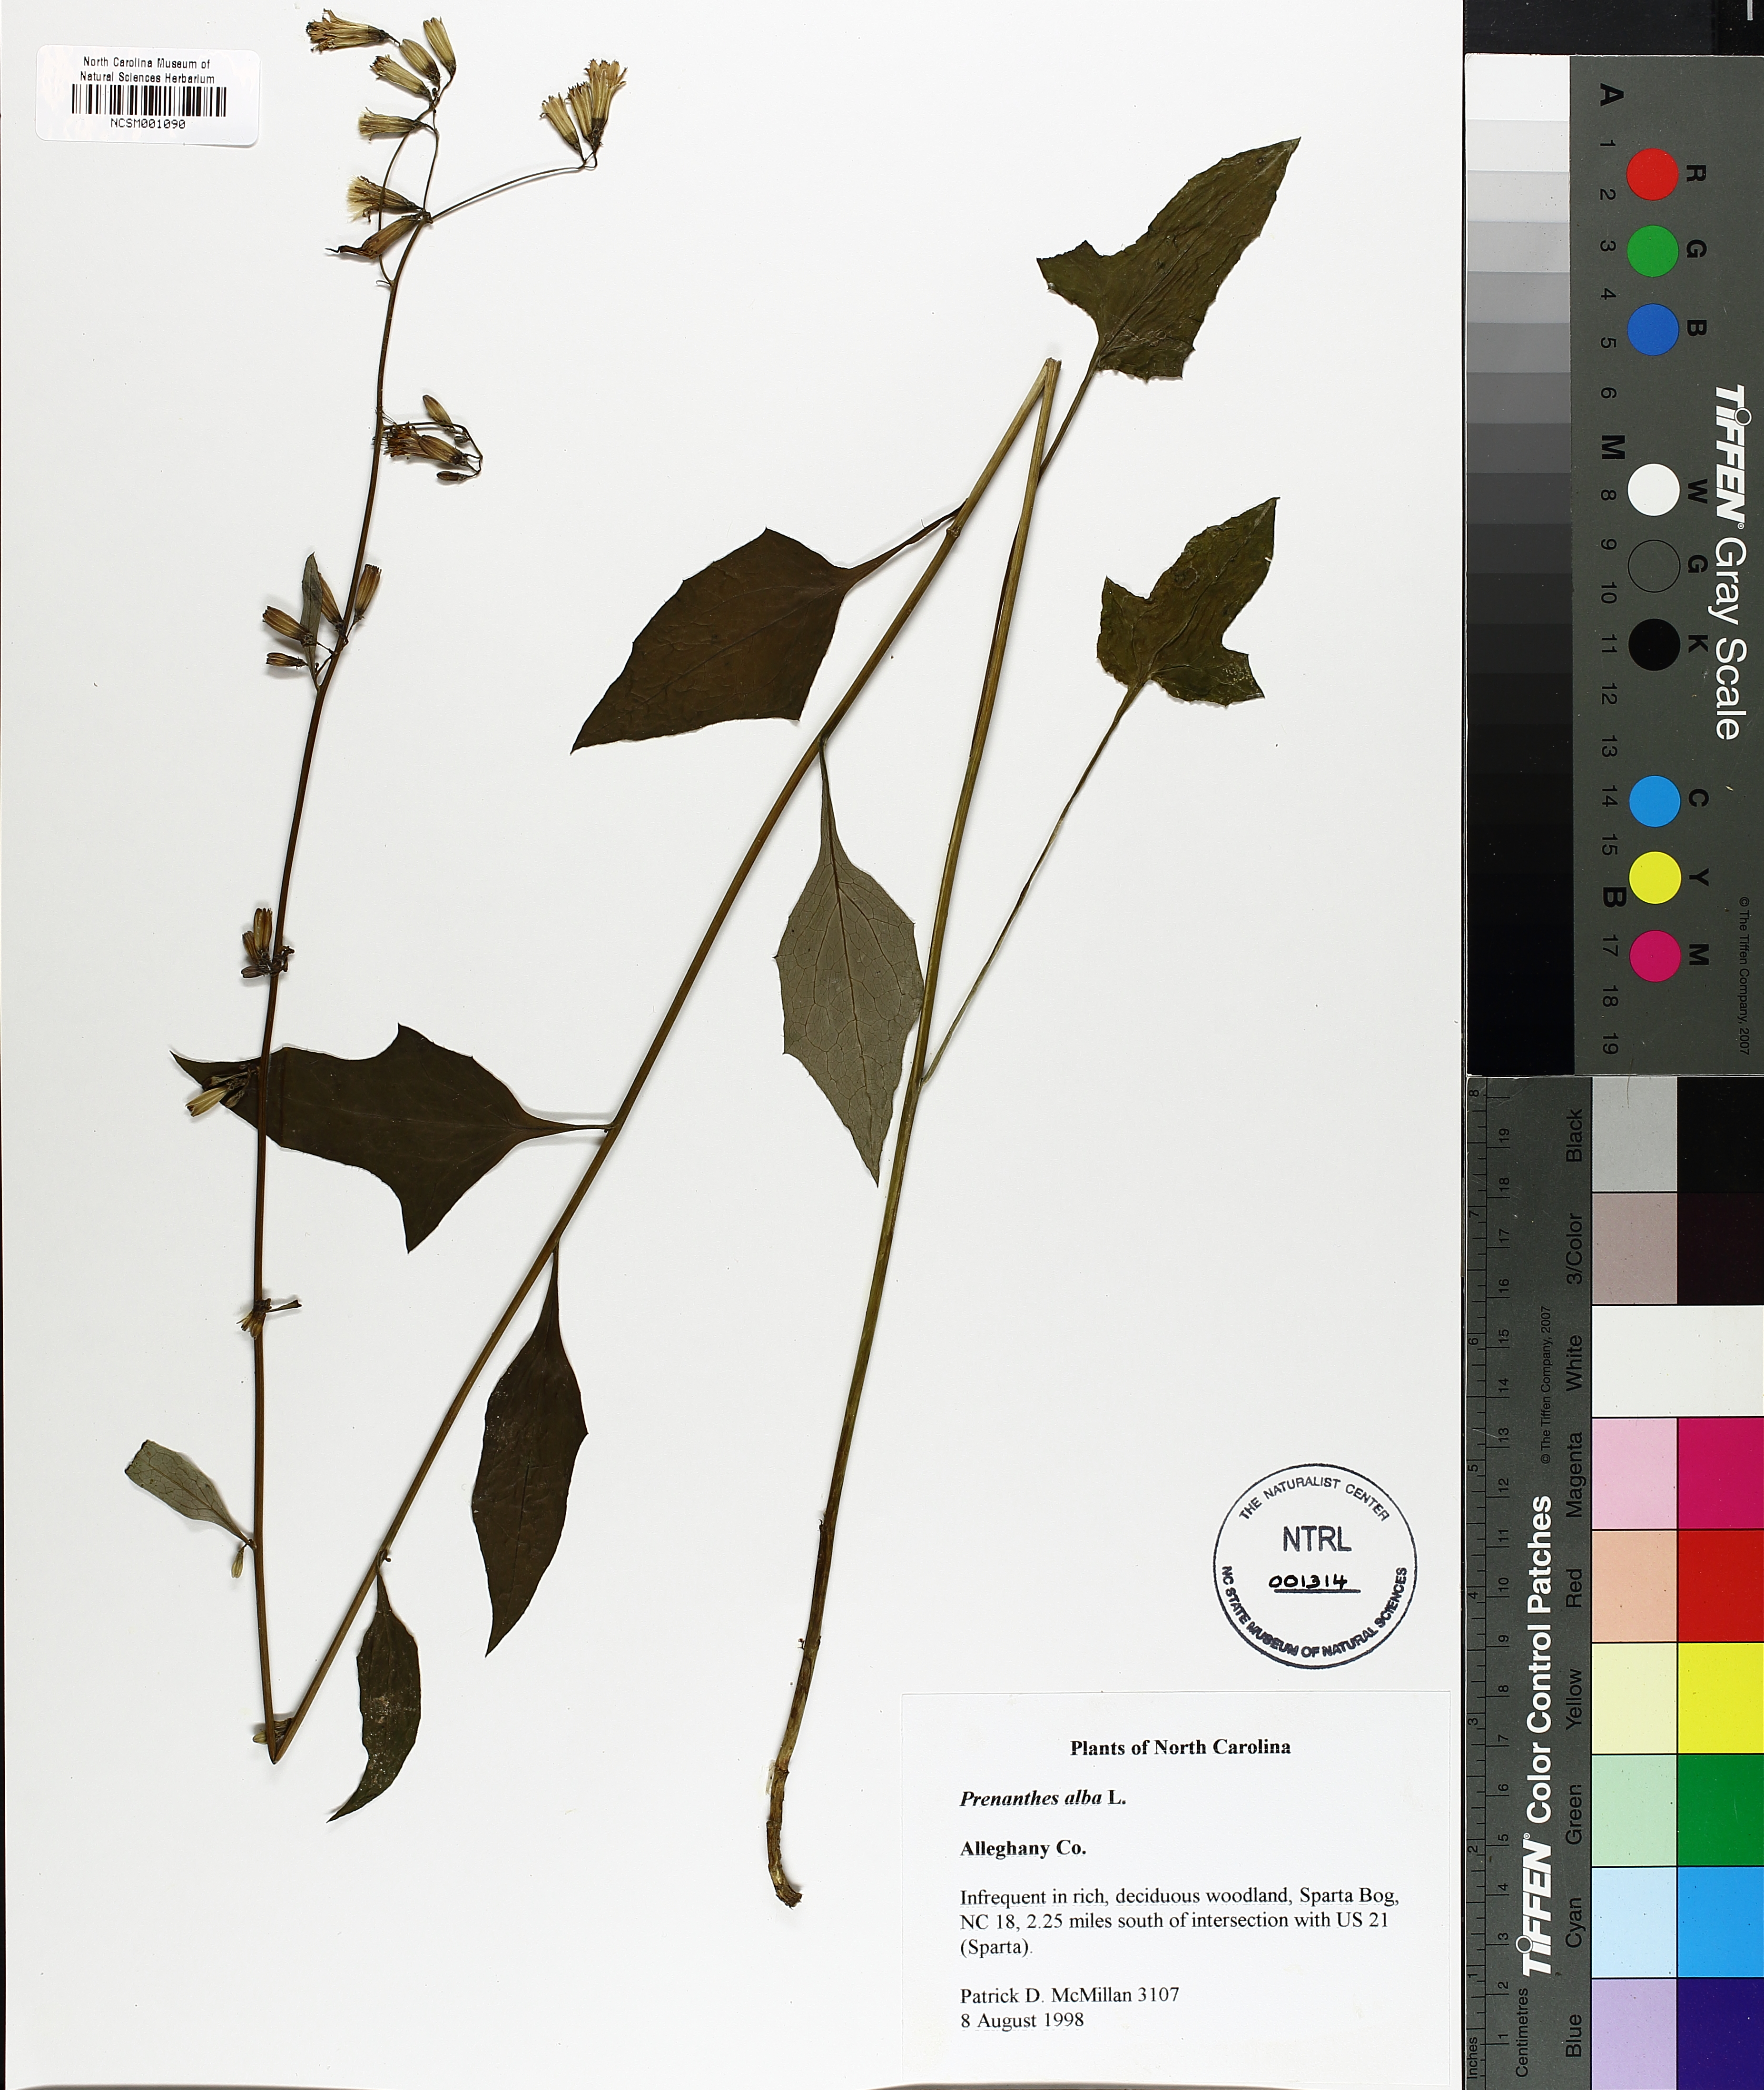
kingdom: Plantae
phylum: Tracheophyta
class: Magnoliopsida
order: Asterales
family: Asteraceae
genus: Nabalus
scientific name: Nabalus albus
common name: White rattlesnakeroot
